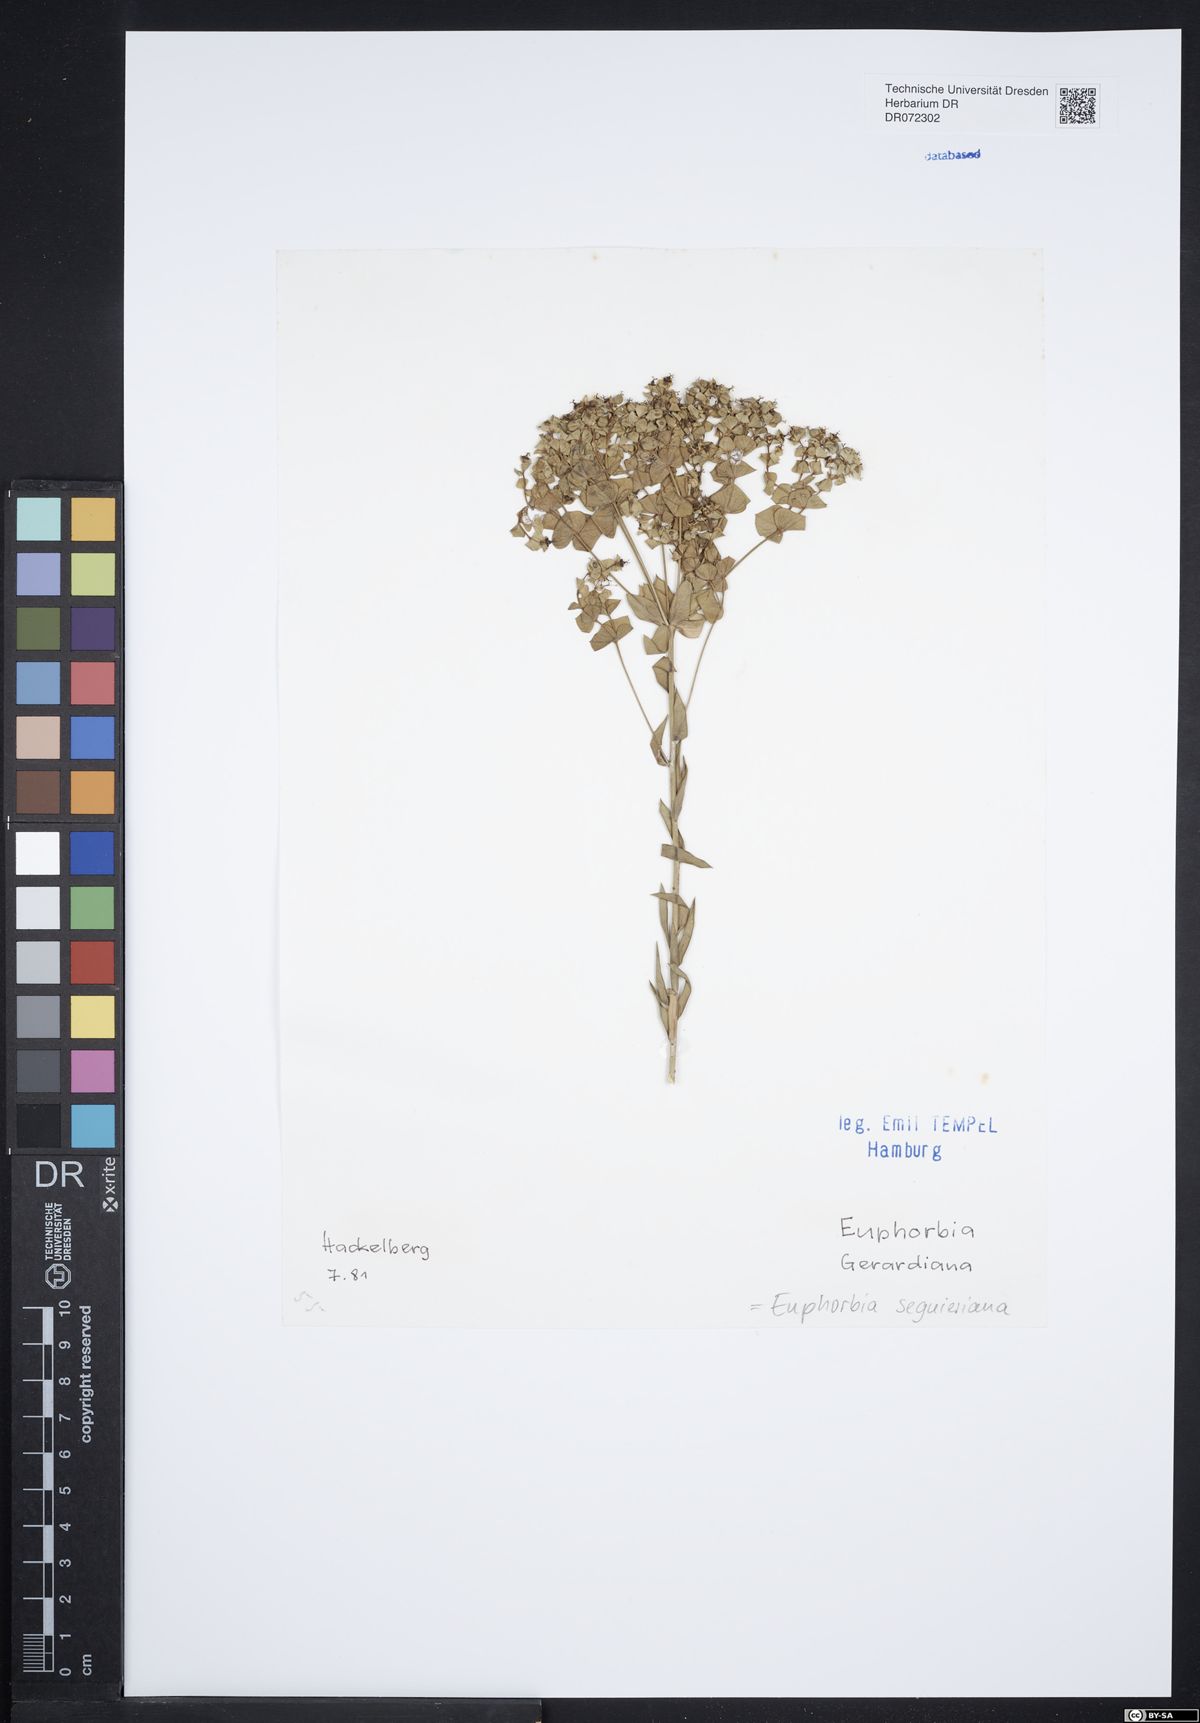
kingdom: Plantae
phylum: Tracheophyta
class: Magnoliopsida
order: Malpighiales
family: Euphorbiaceae
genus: Euphorbia
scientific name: Euphorbia seguieriana
